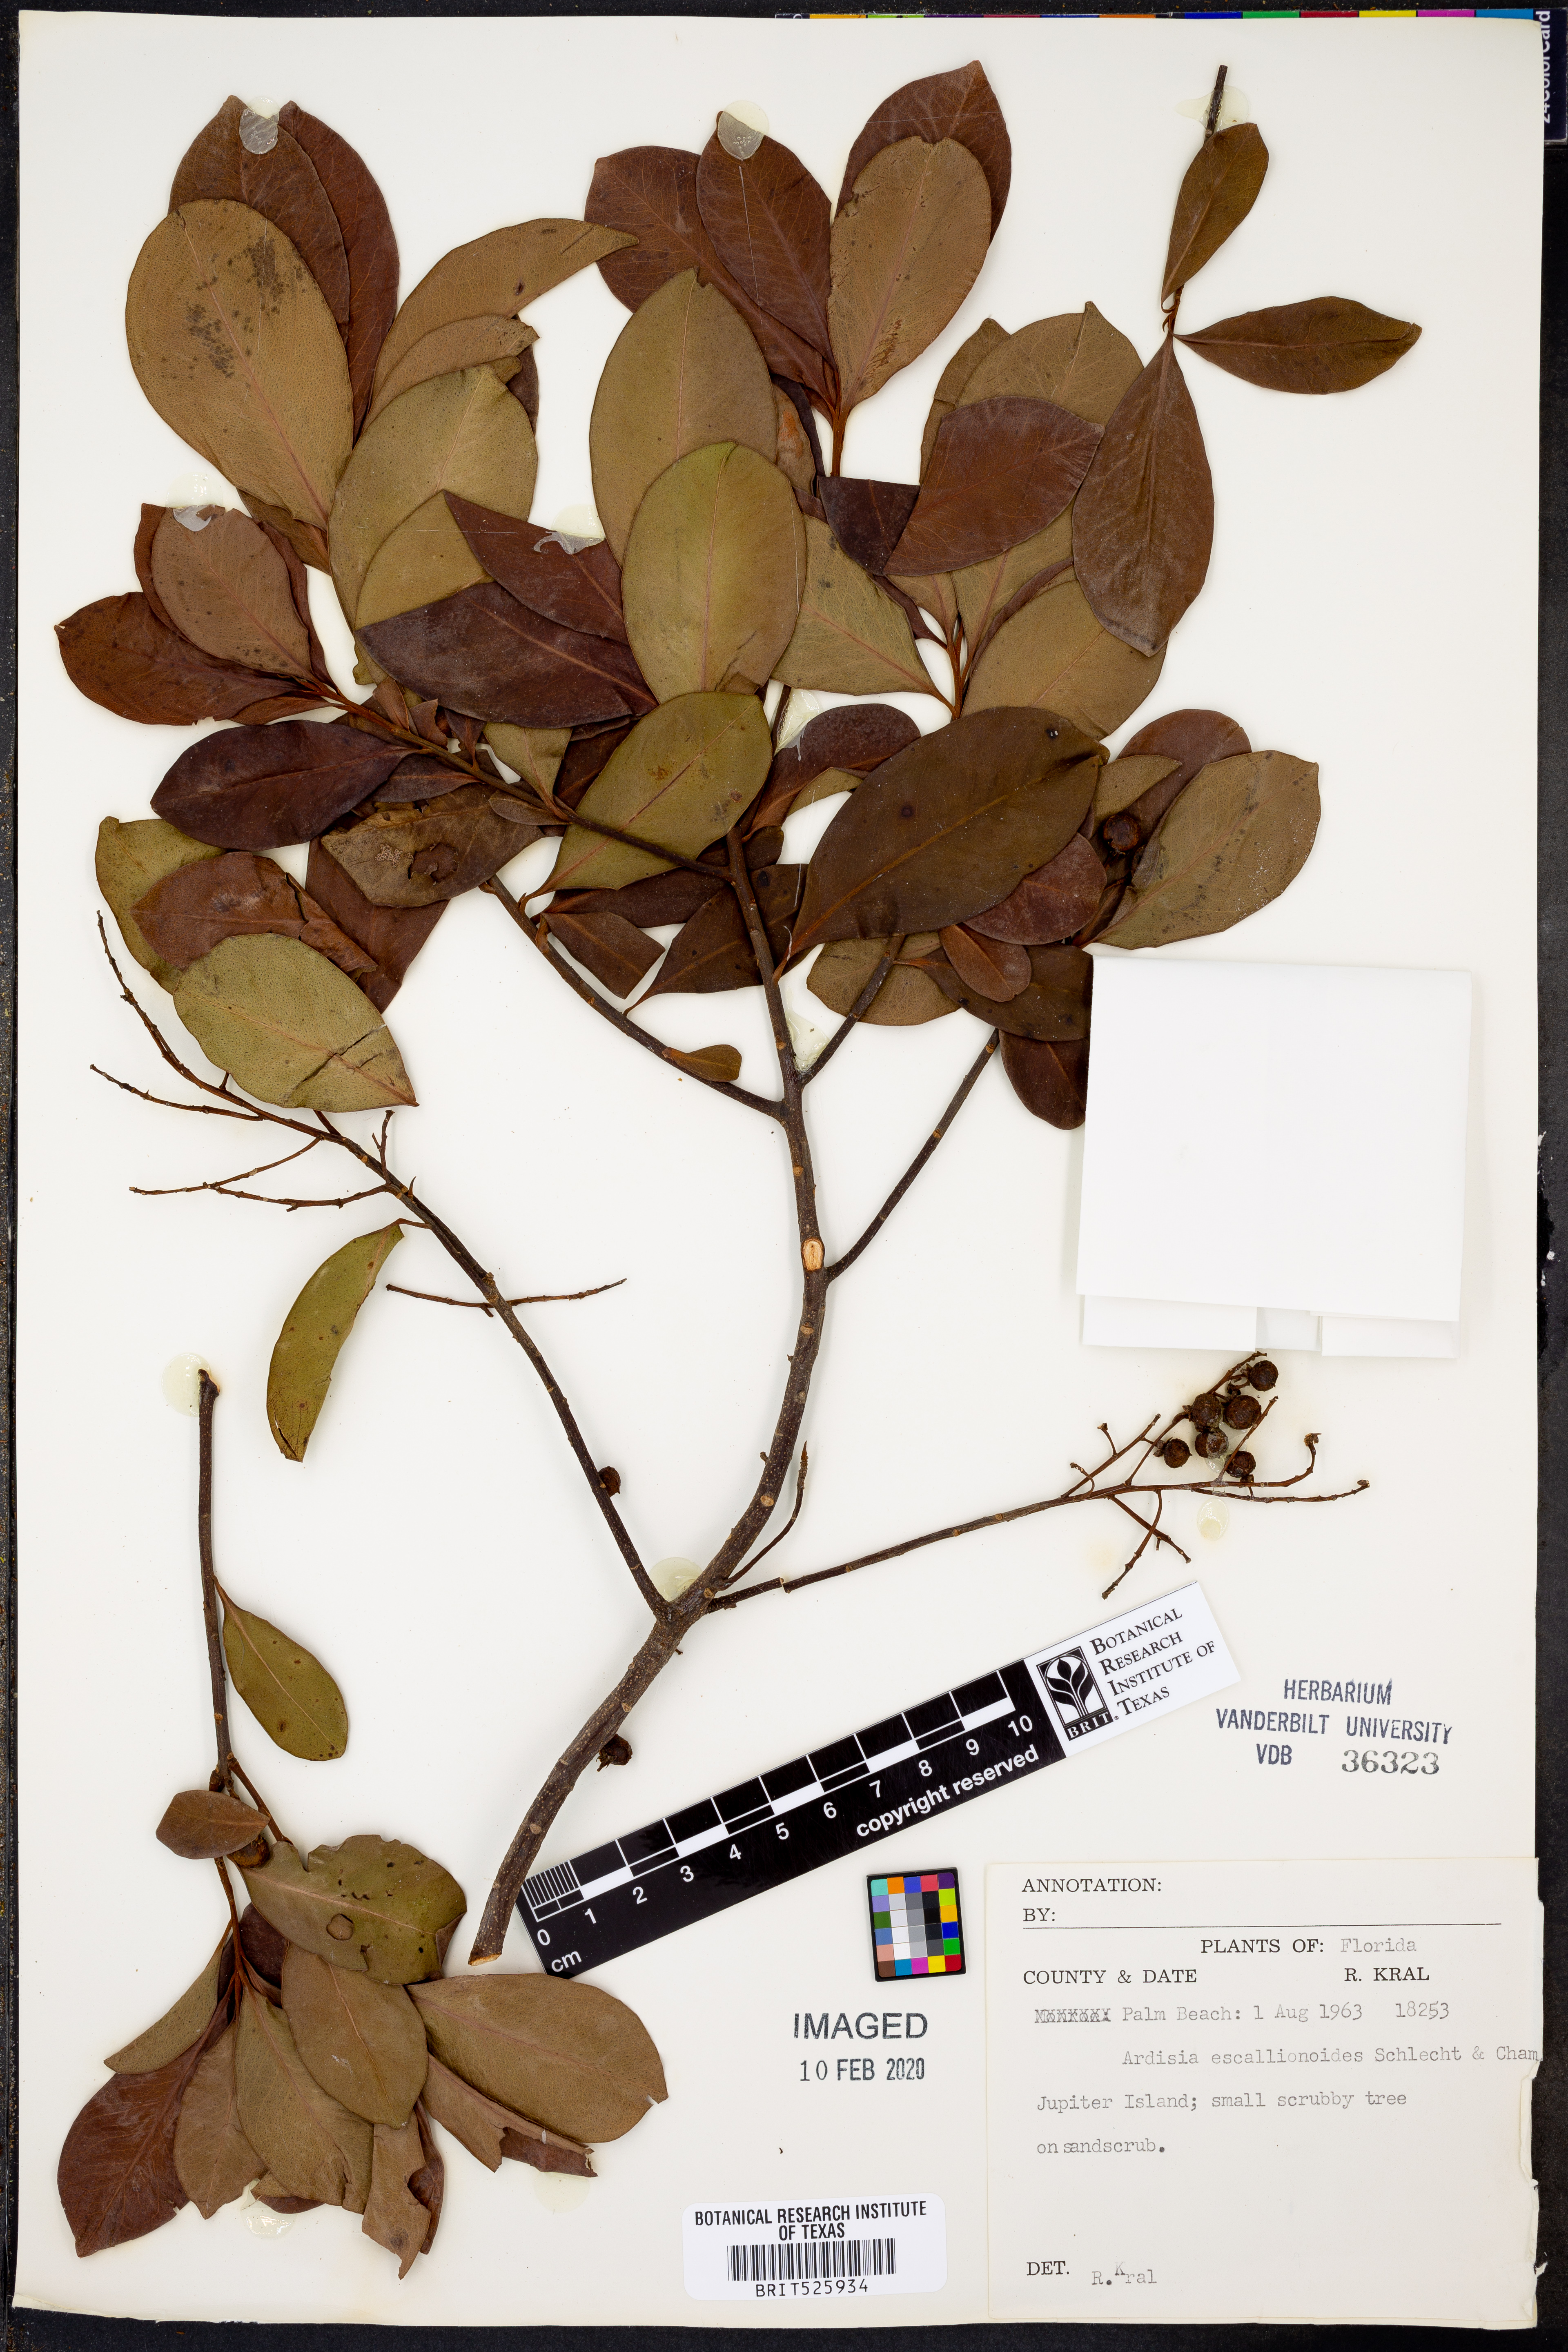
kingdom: Plantae
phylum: Tracheophyta
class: Magnoliopsida
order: Ericales
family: Primulaceae
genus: Ardisia
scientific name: Ardisia escallonioides
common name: Island marlberry
